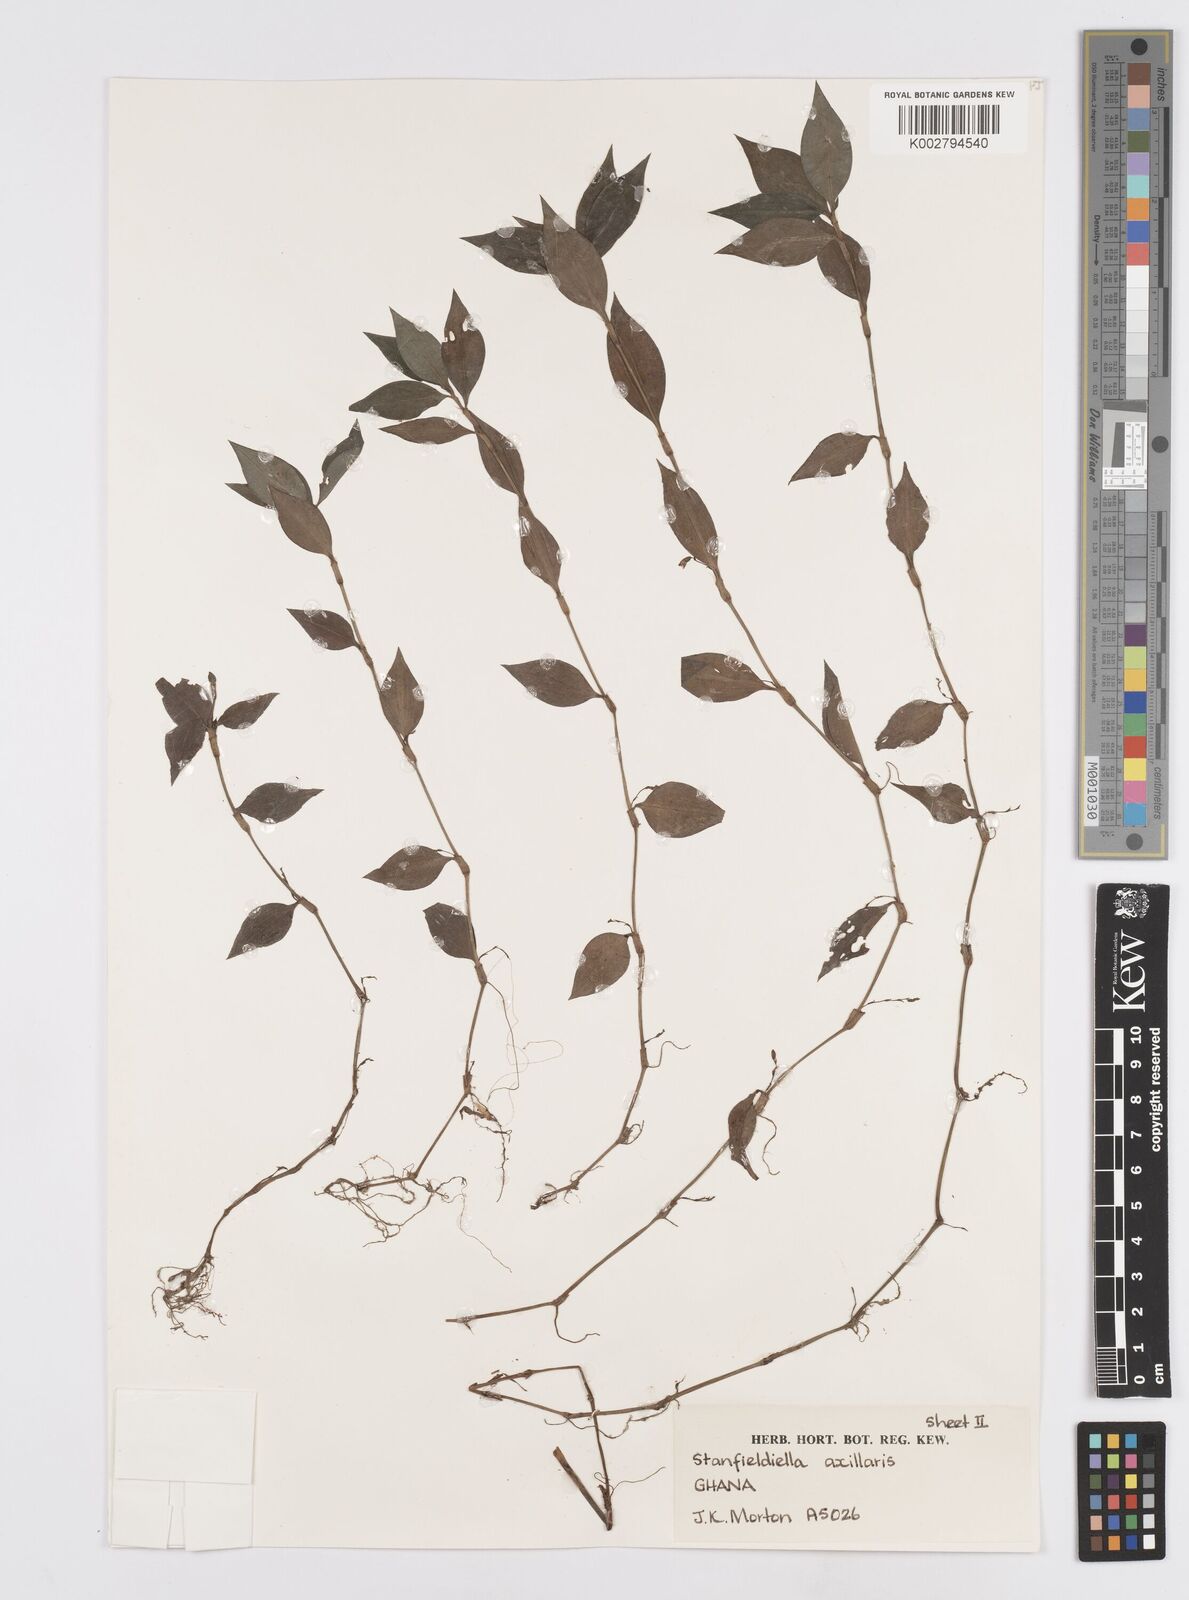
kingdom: Plantae
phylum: Tracheophyta
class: Liliopsida
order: Commelinales
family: Commelinaceae
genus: Stanfieldiella
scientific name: Stanfieldiella axillaris
